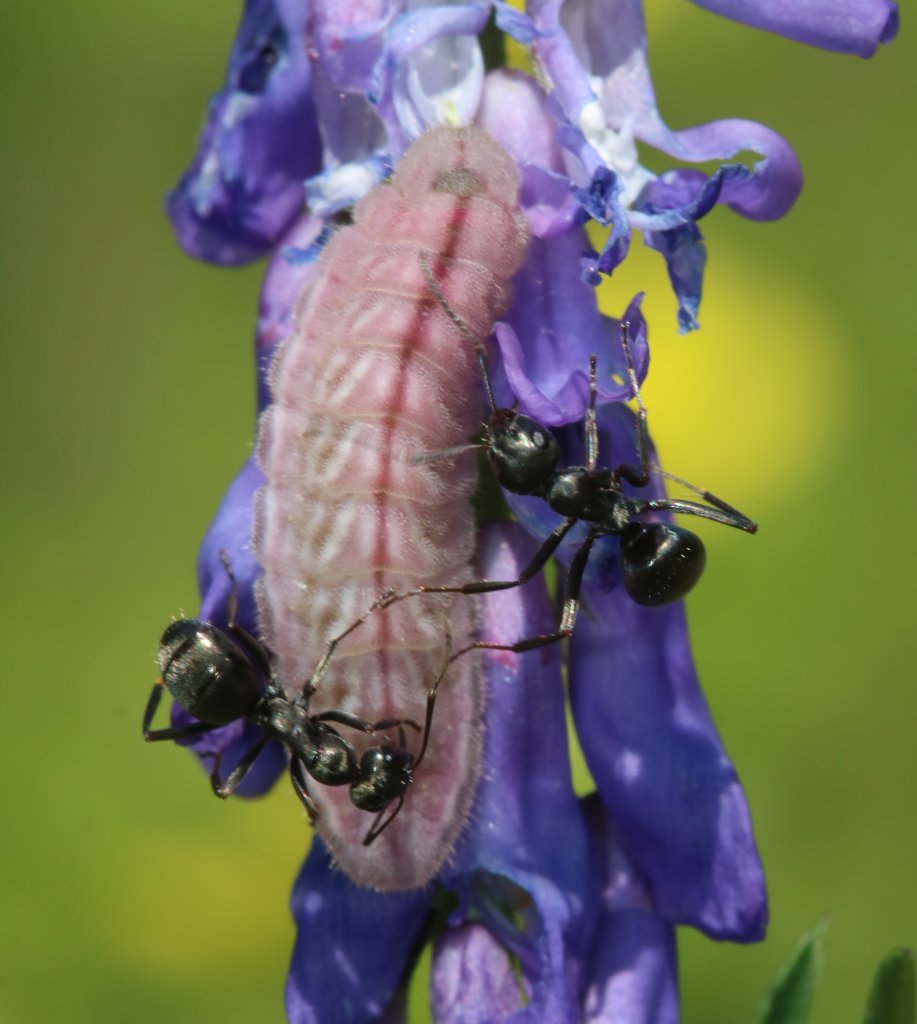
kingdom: Animalia
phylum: Arthropoda
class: Insecta
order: Lepidoptera
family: Lycaenidae
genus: Glaucopsyche
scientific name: Glaucopsyche lygdamus
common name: Silvery Blue
